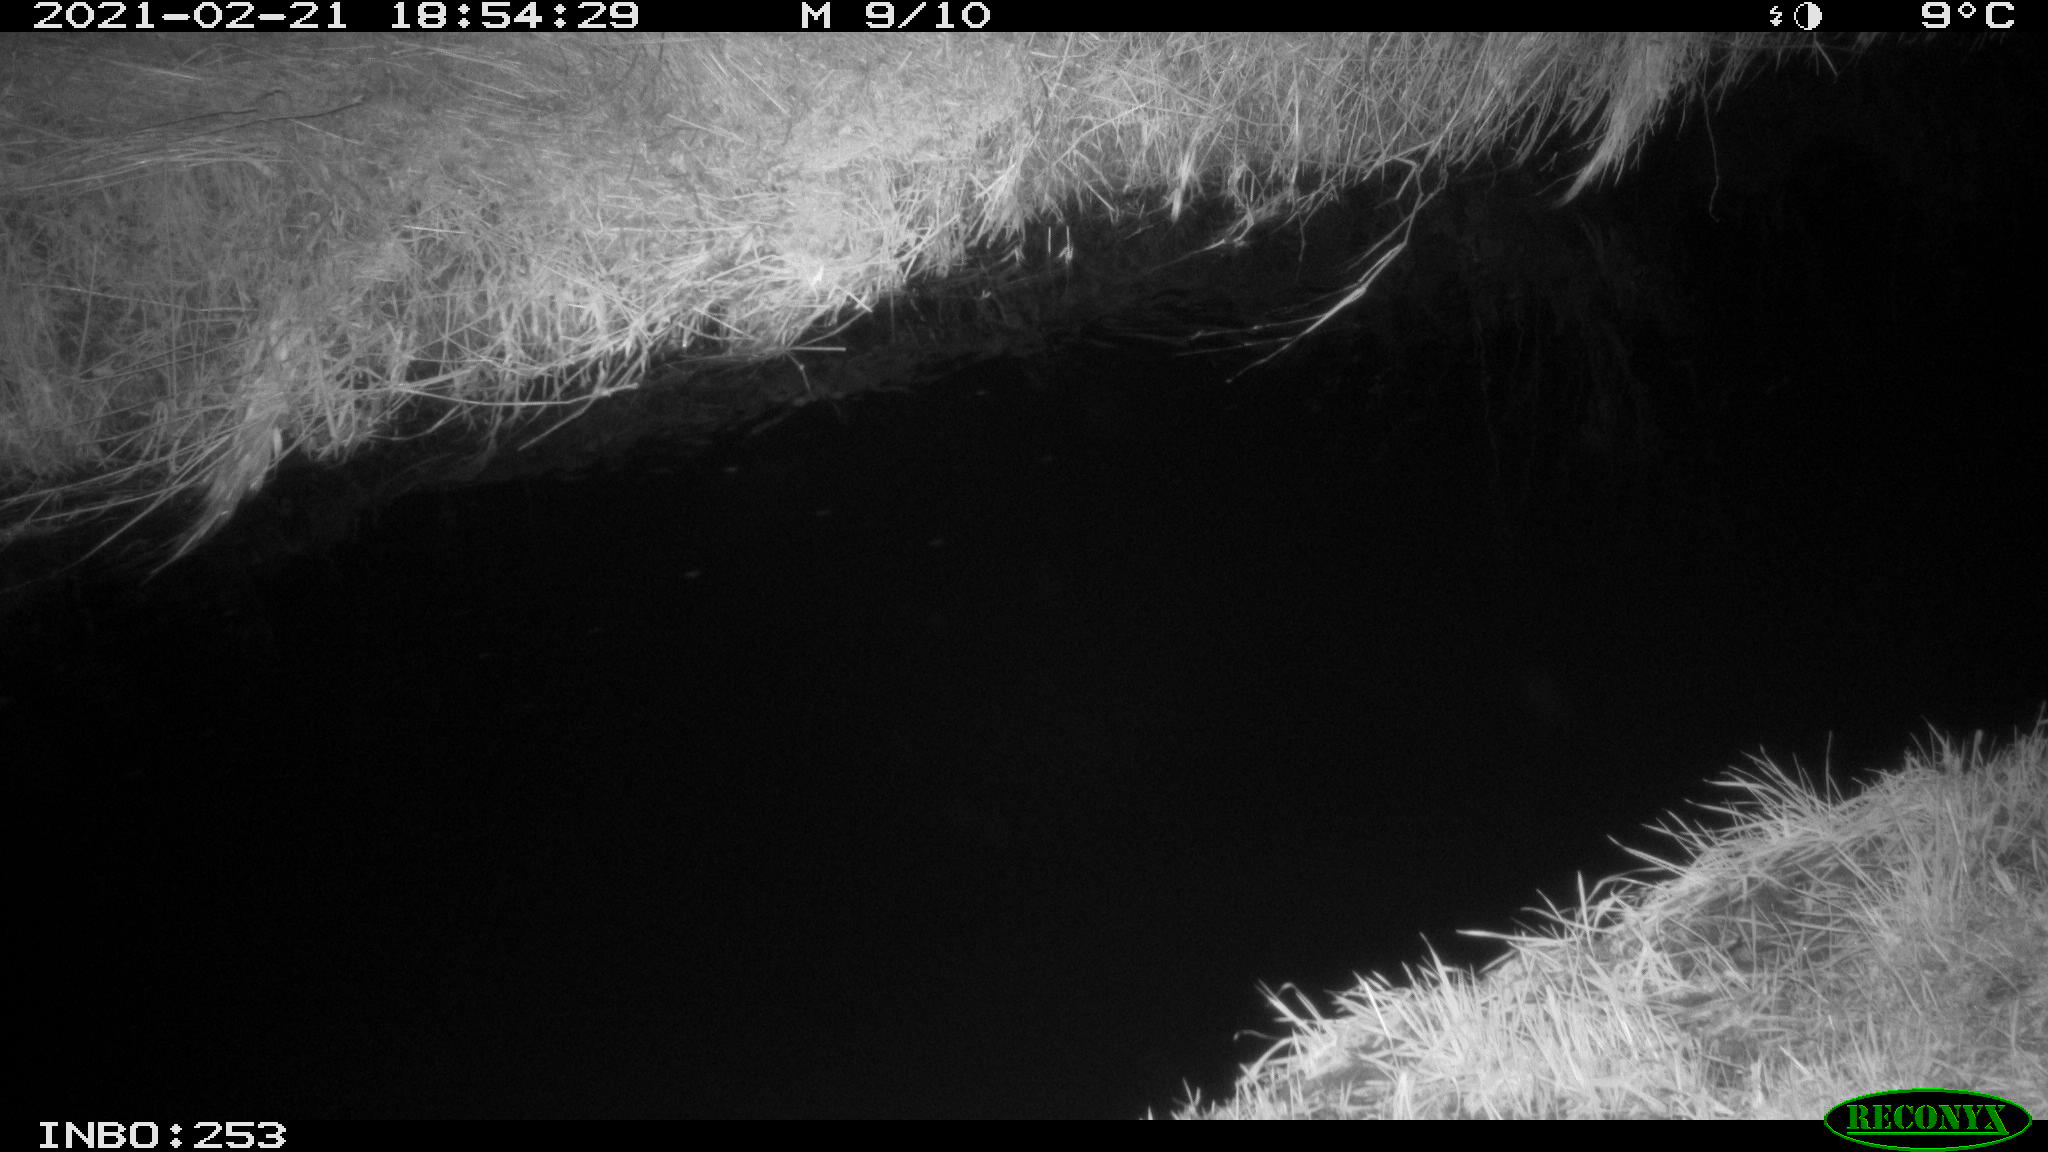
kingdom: Animalia
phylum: Chordata
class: Aves
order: Anseriformes
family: Anatidae
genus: Anas
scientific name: Anas platyrhynchos
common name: Mallard
